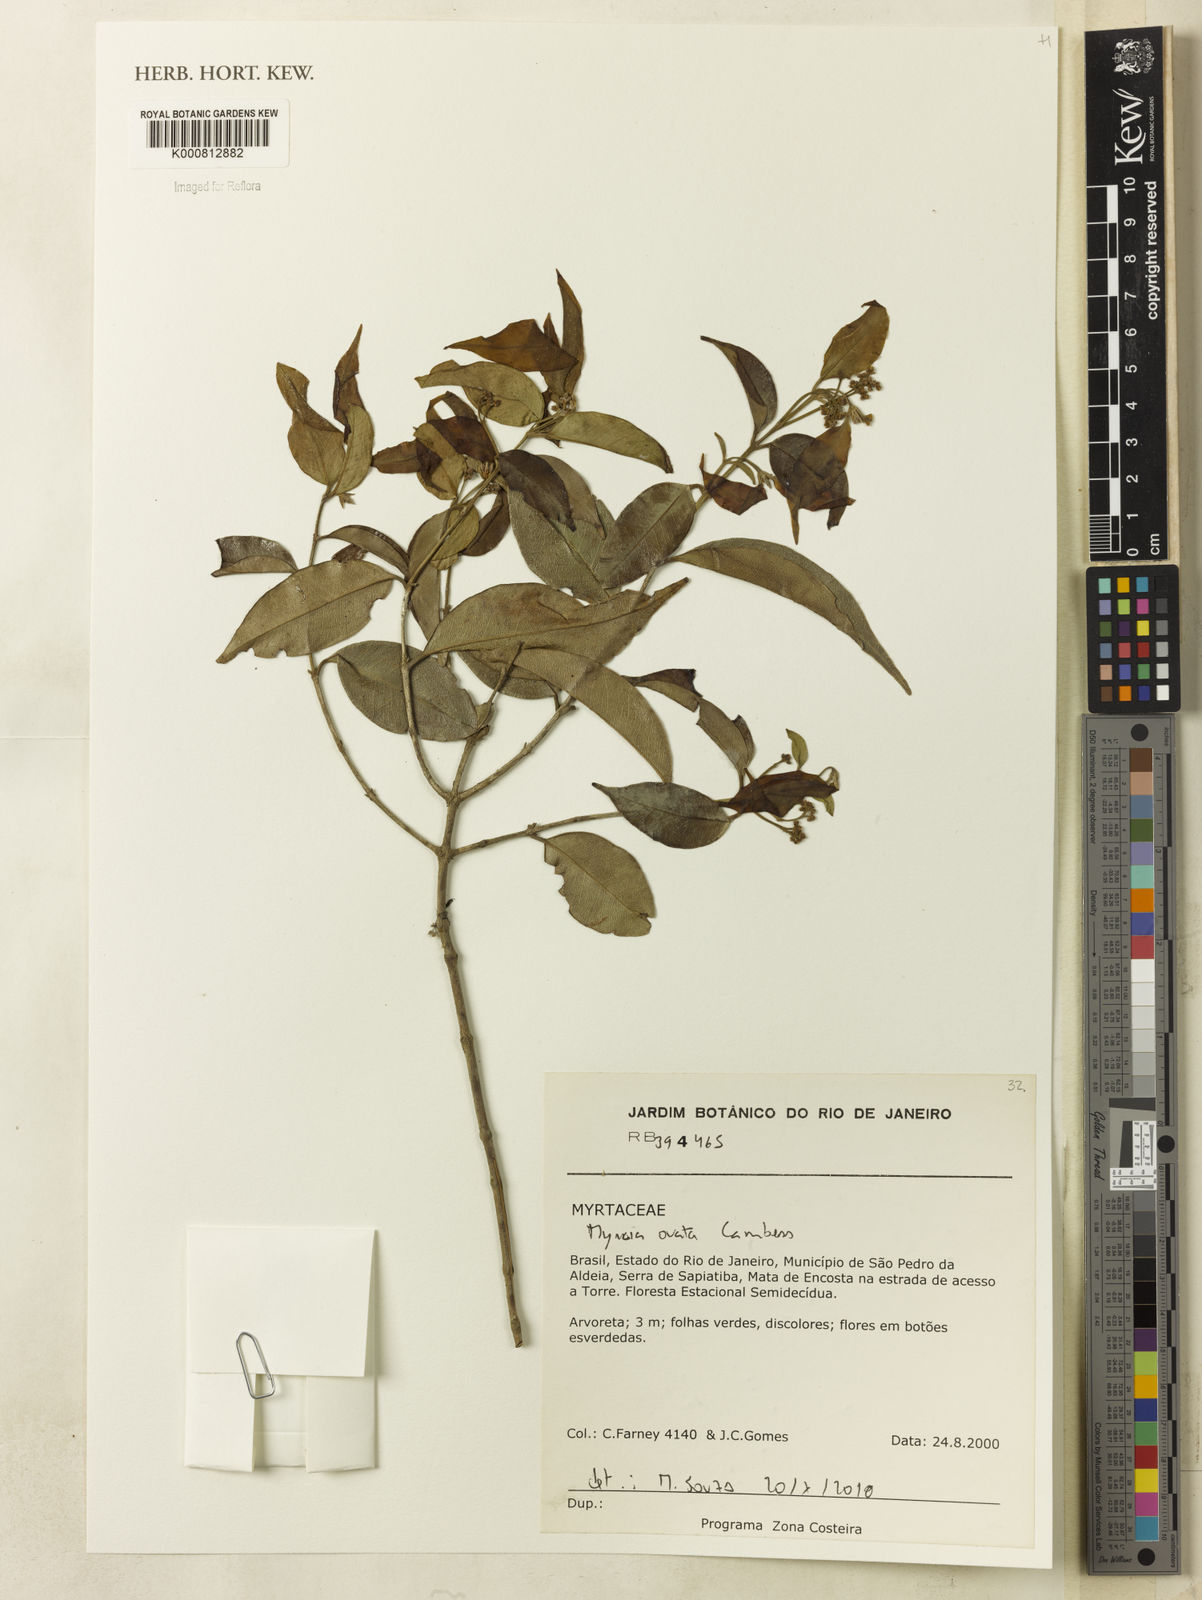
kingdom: Plantae
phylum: Tracheophyta
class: Magnoliopsida
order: Myrtales
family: Myrtaceae
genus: Myrcia
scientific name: Myrcia ovata
